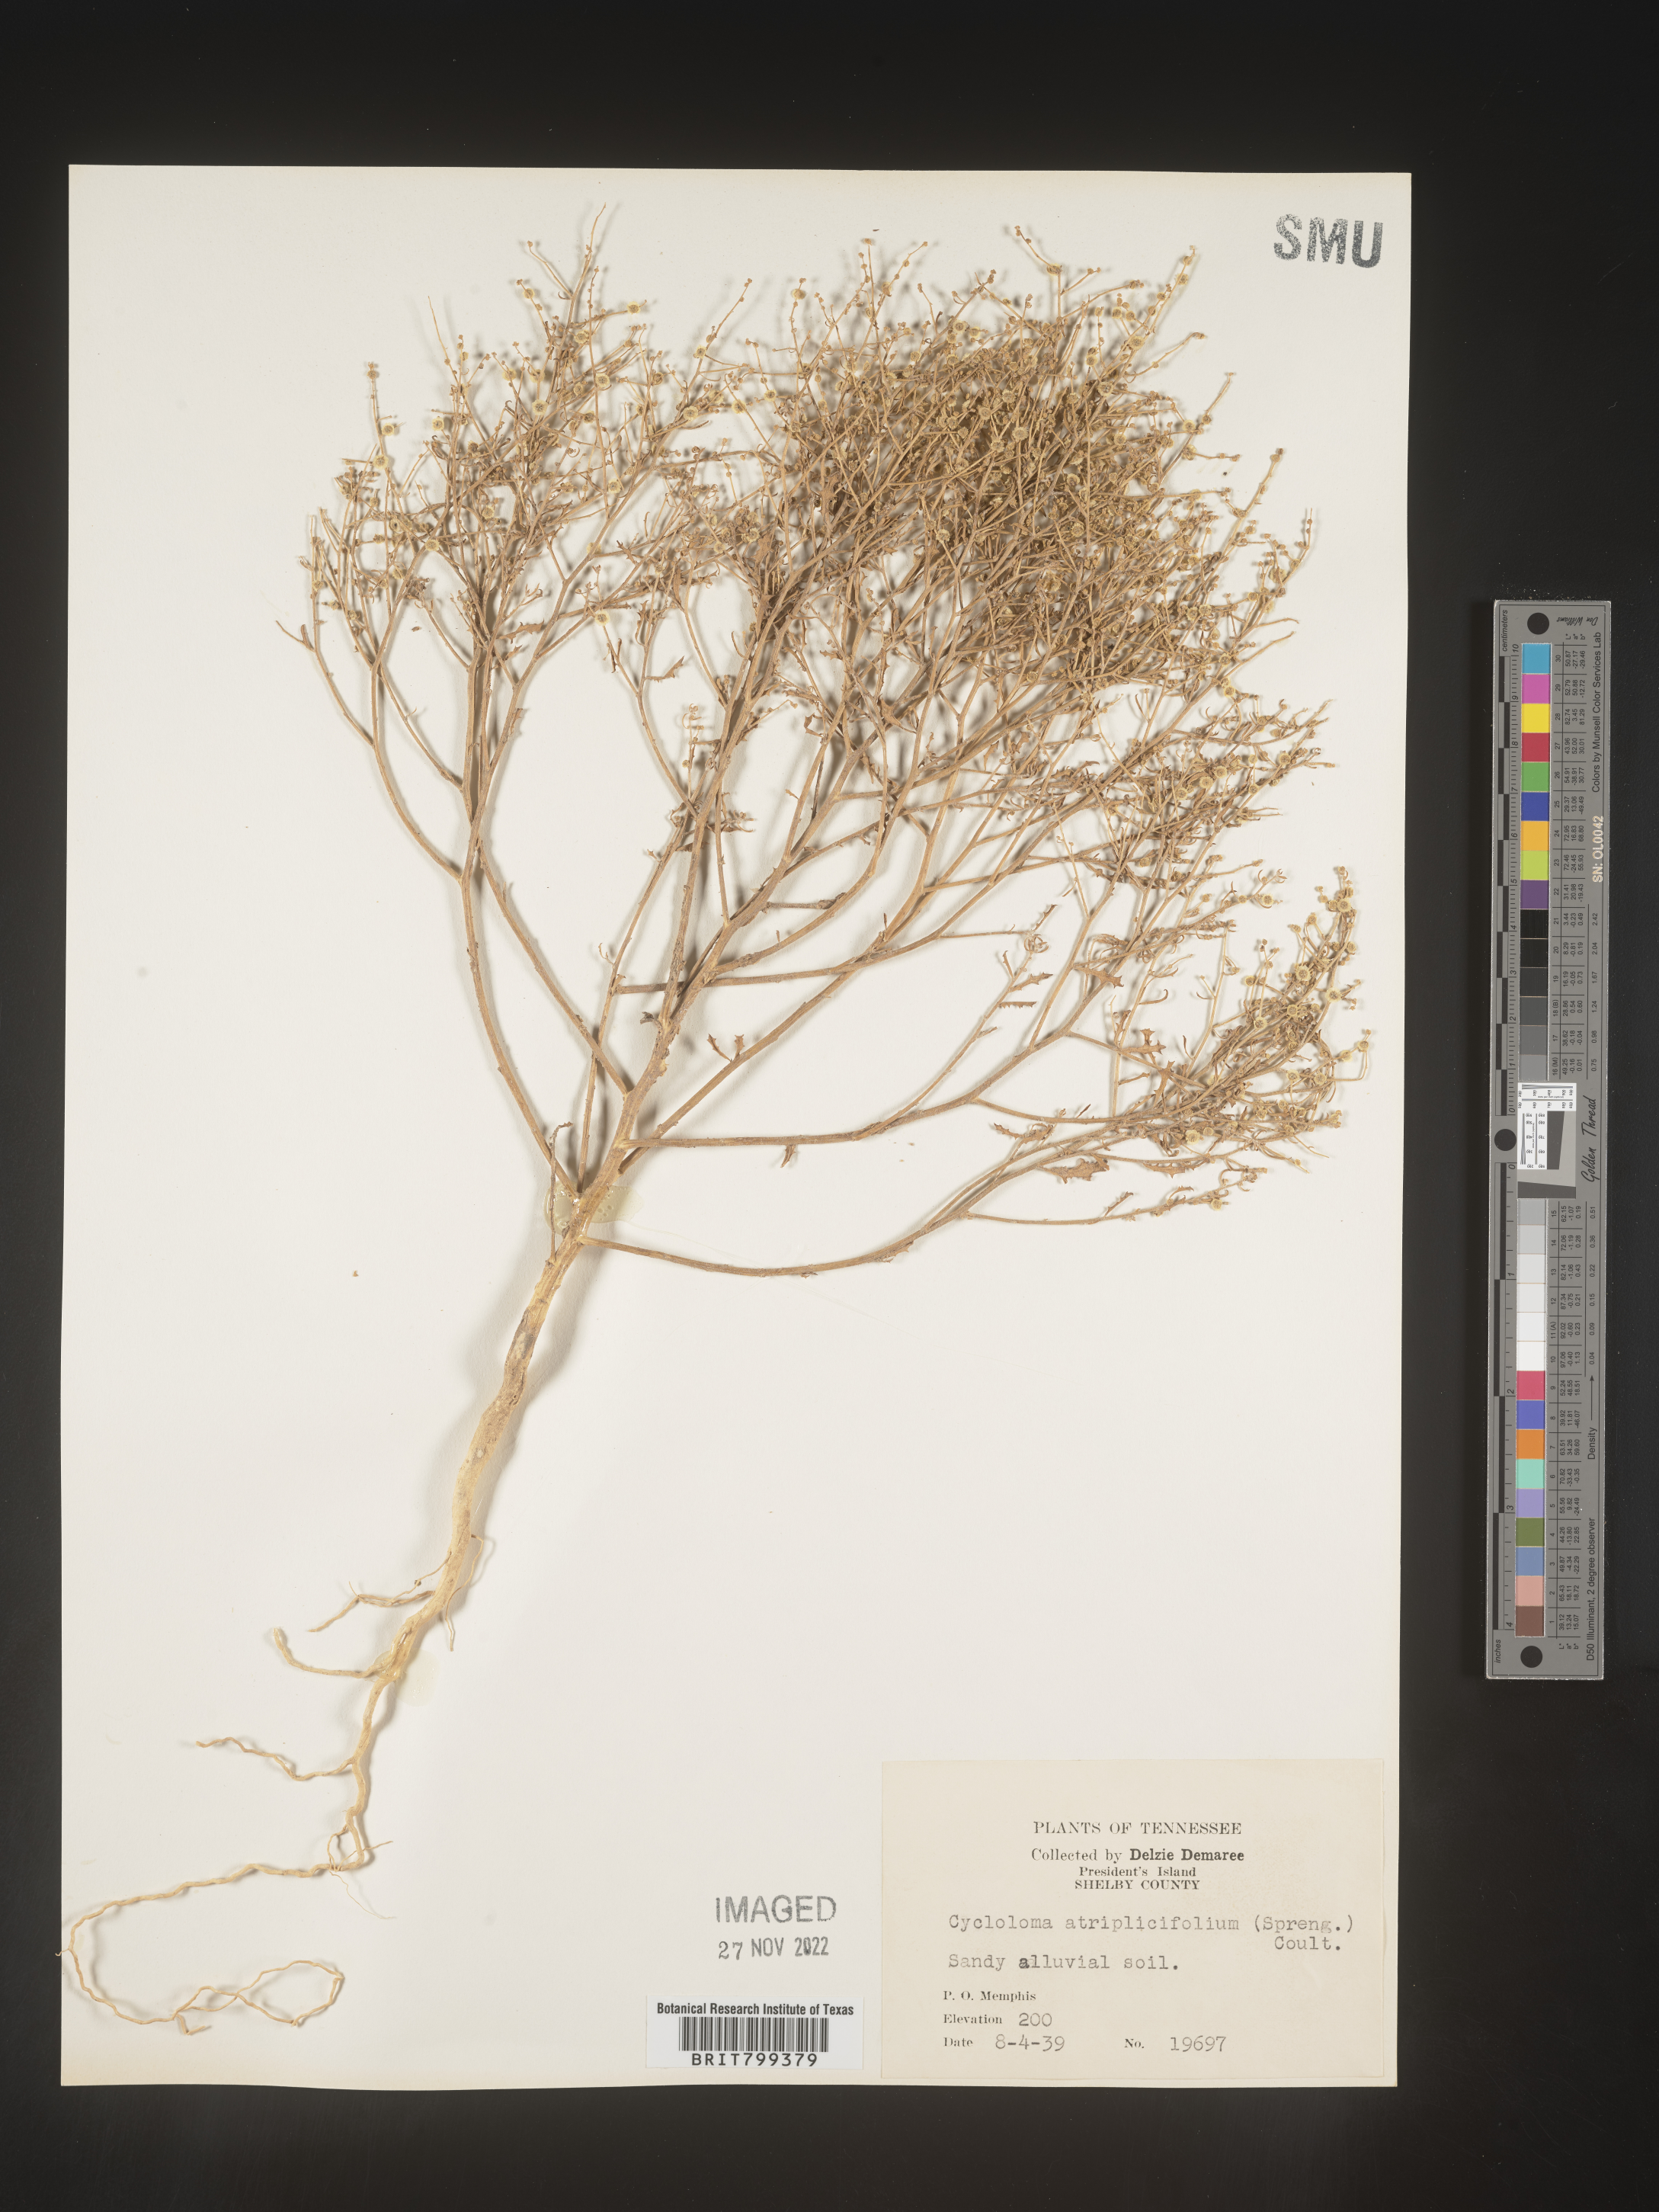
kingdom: Plantae
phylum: Tracheophyta
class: Magnoliopsida
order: Caryophyllales
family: Amaranthaceae
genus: Dysphania
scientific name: Dysphania atriplicifolia
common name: Plains tumbleweed
